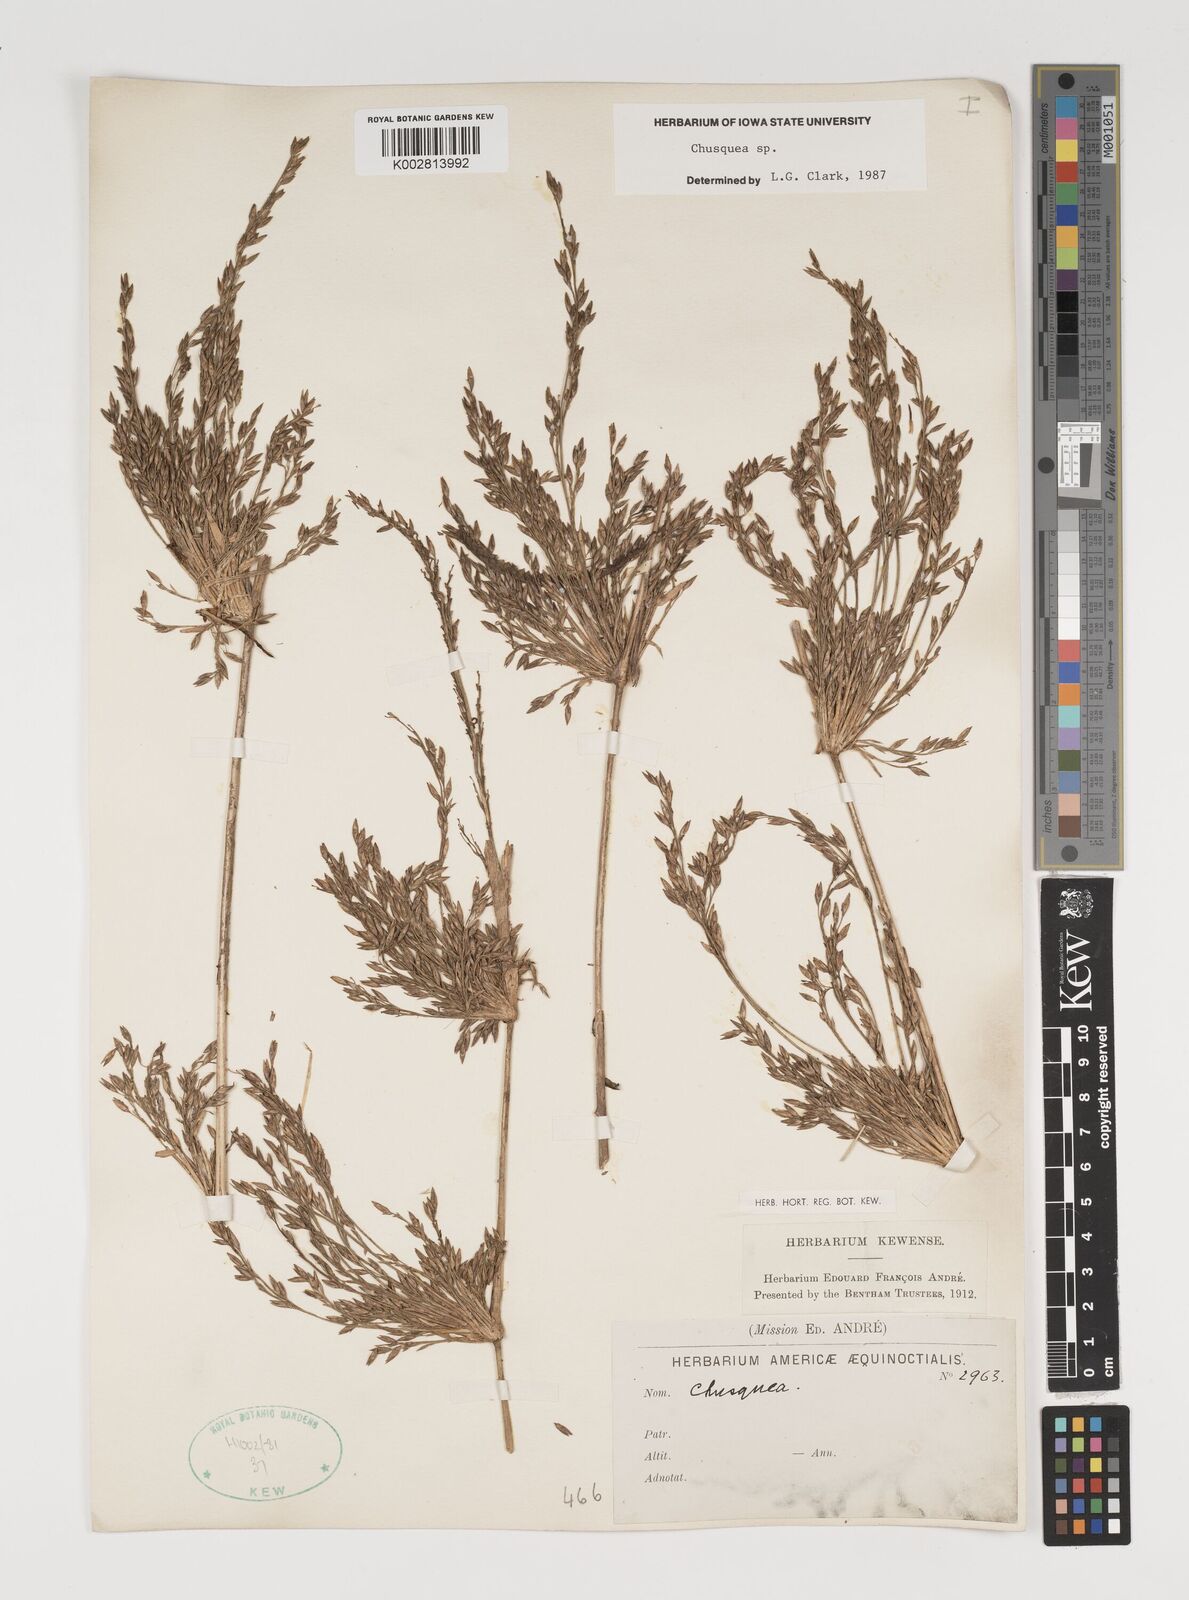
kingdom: Plantae
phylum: Tracheophyta
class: Liliopsida
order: Poales
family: Poaceae
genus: Chusquea
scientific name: Chusquea
